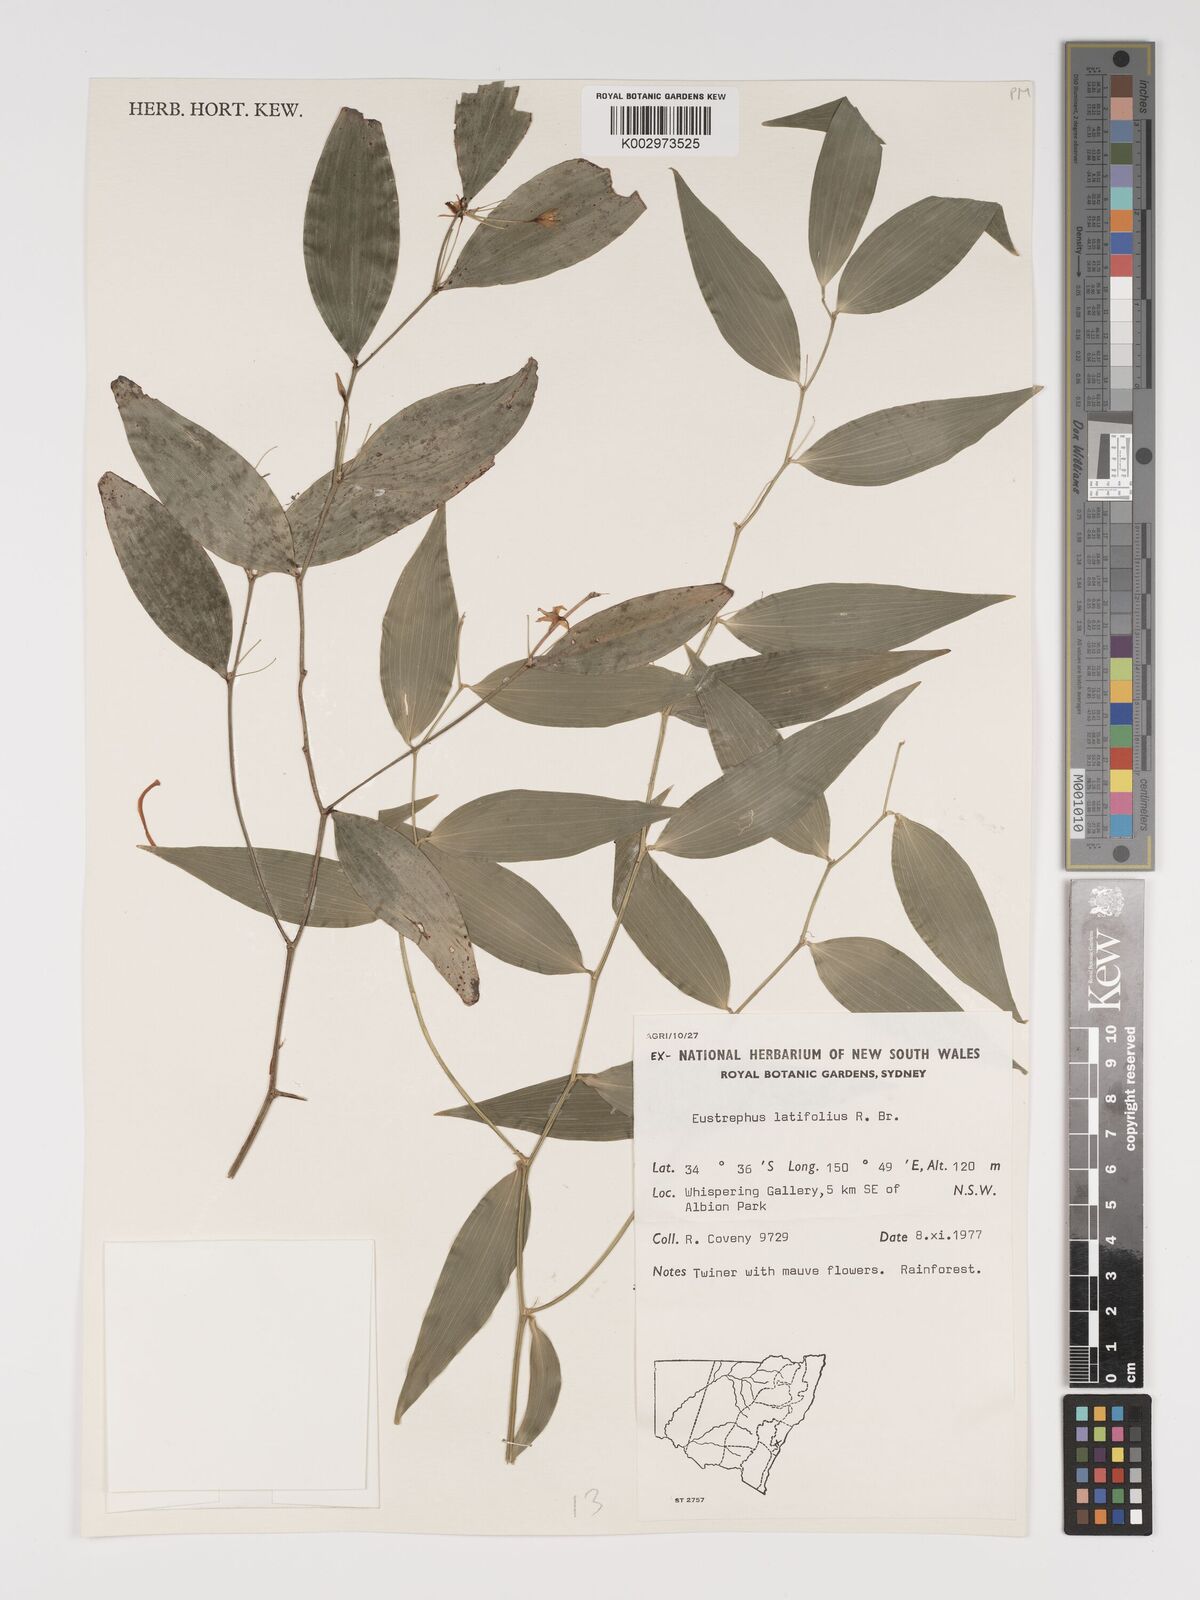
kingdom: Plantae
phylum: Tracheophyta
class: Liliopsida
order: Asparagales
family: Asparagaceae
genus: Eustrephus
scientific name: Eustrephus latifolius
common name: Orangevine
